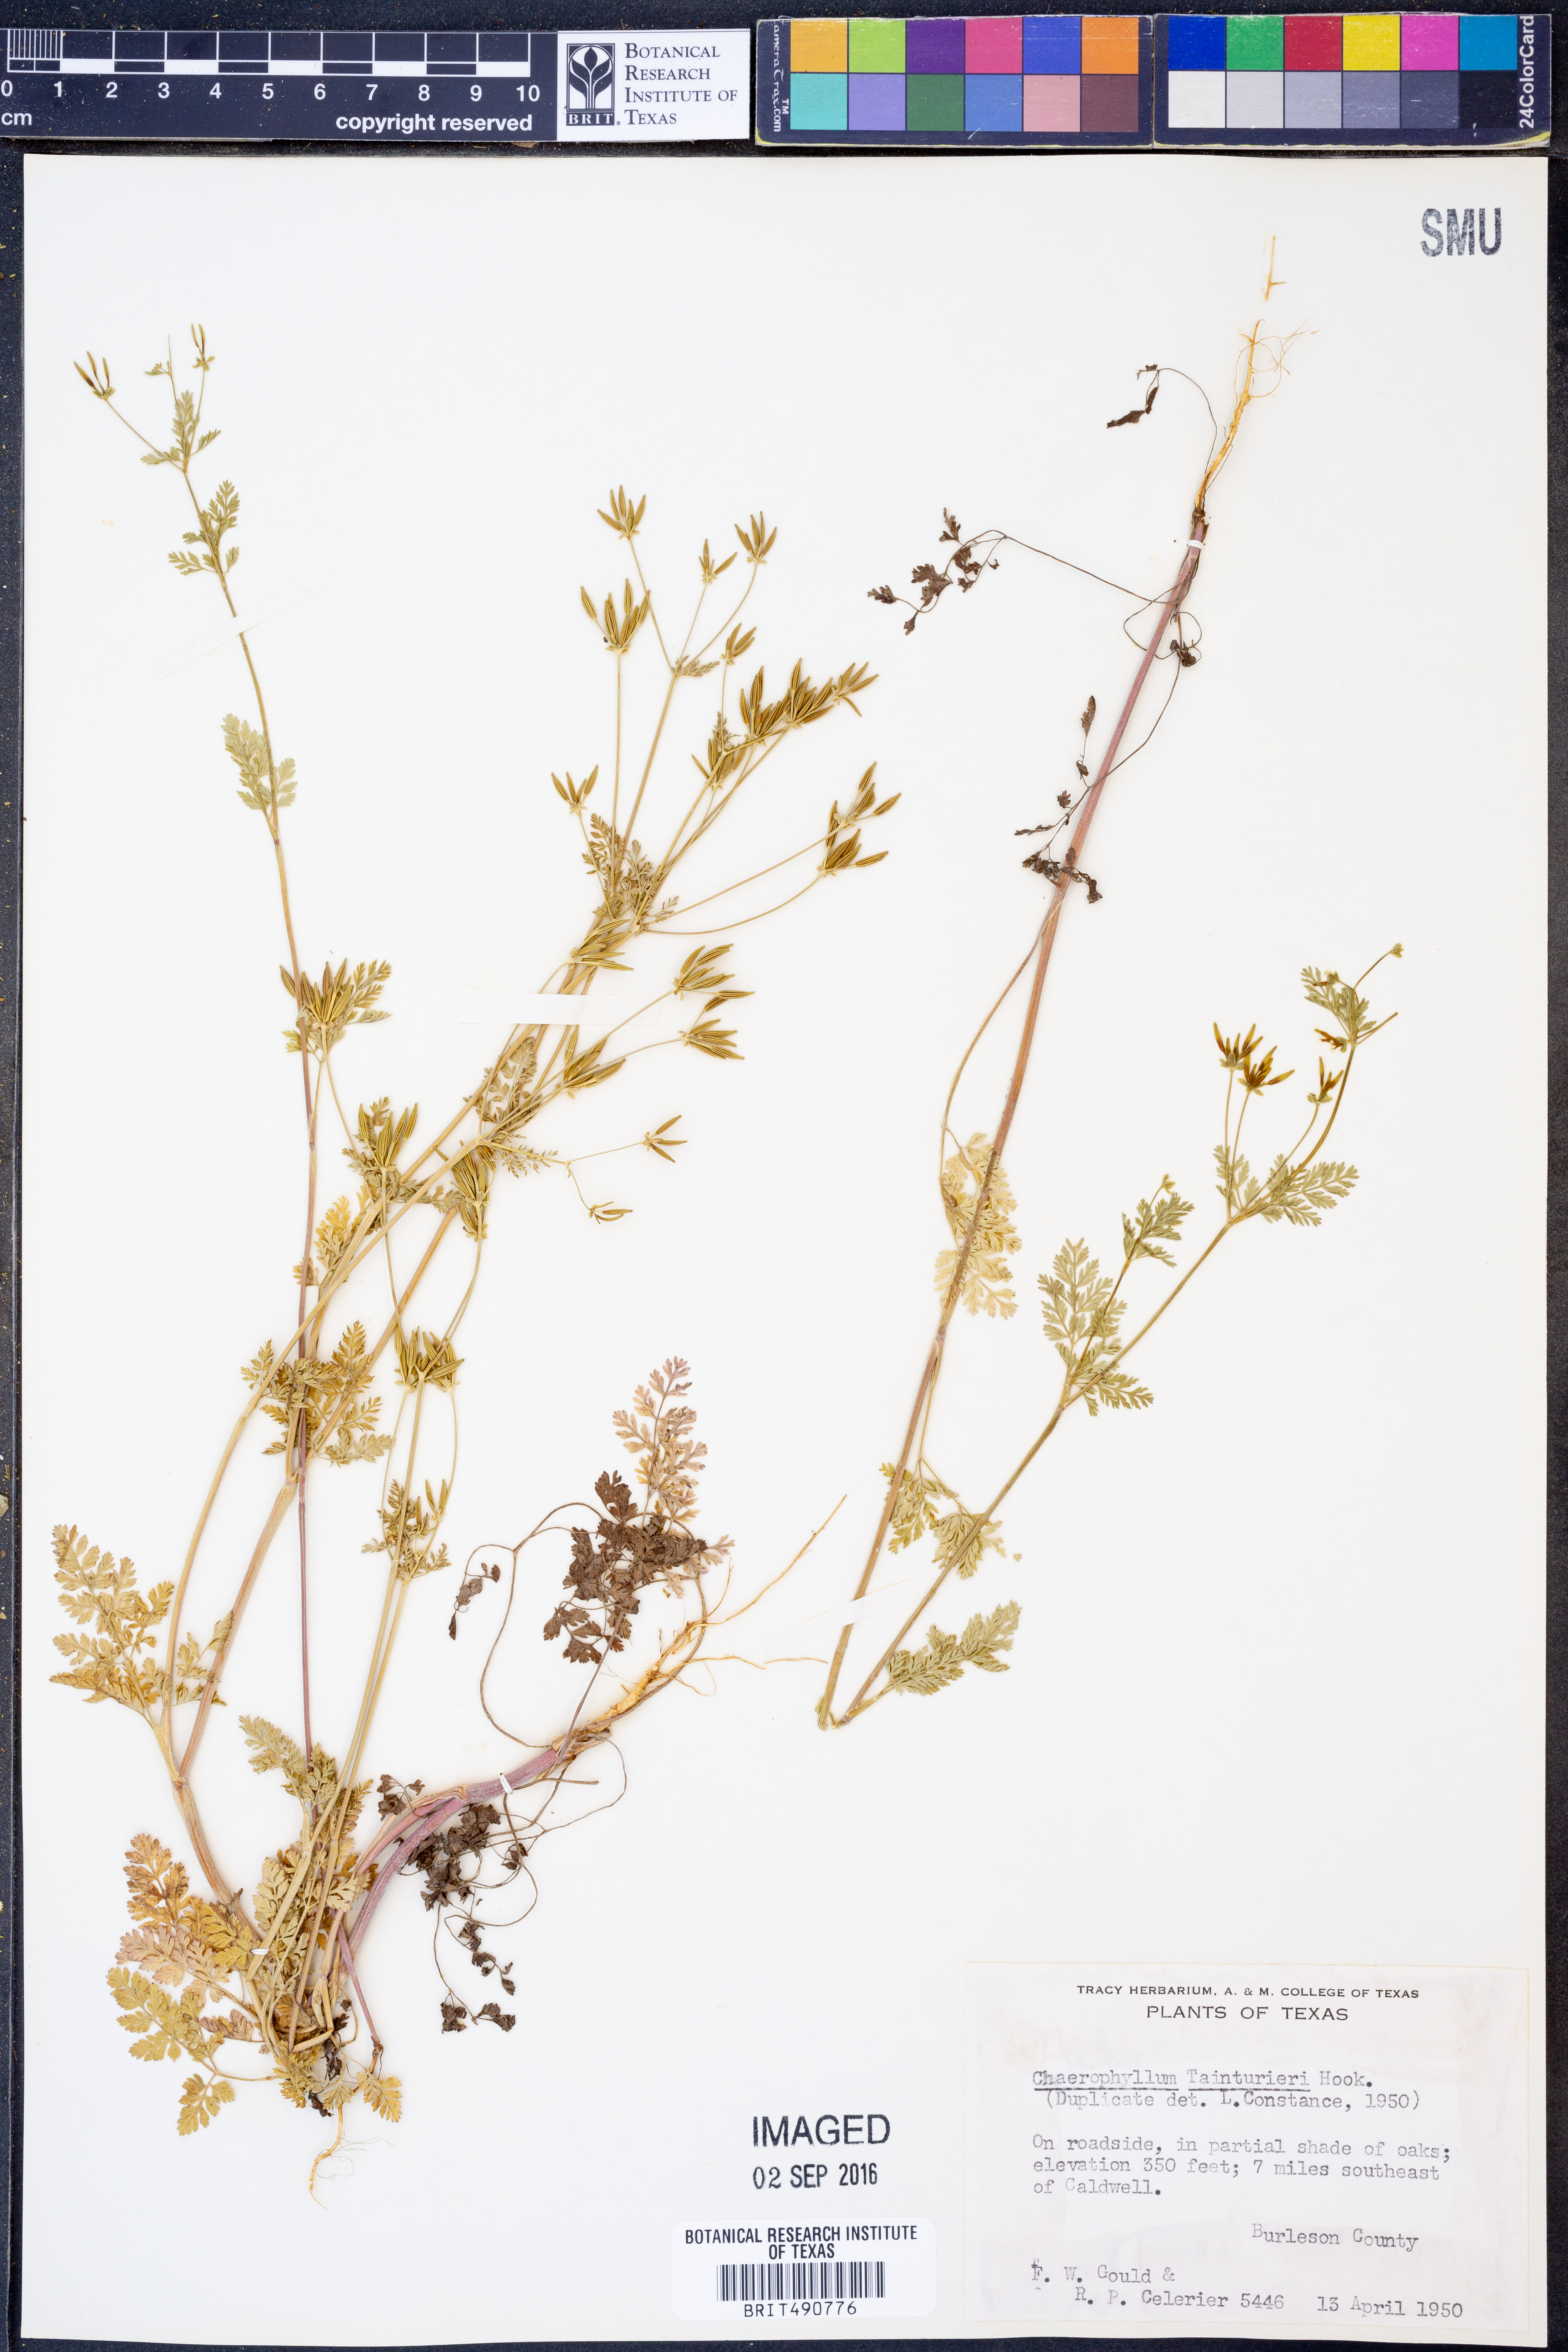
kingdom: Plantae
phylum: Tracheophyta
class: Magnoliopsida
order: Apiales
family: Apiaceae
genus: Chaerophyllum
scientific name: Chaerophyllum tainturieri
